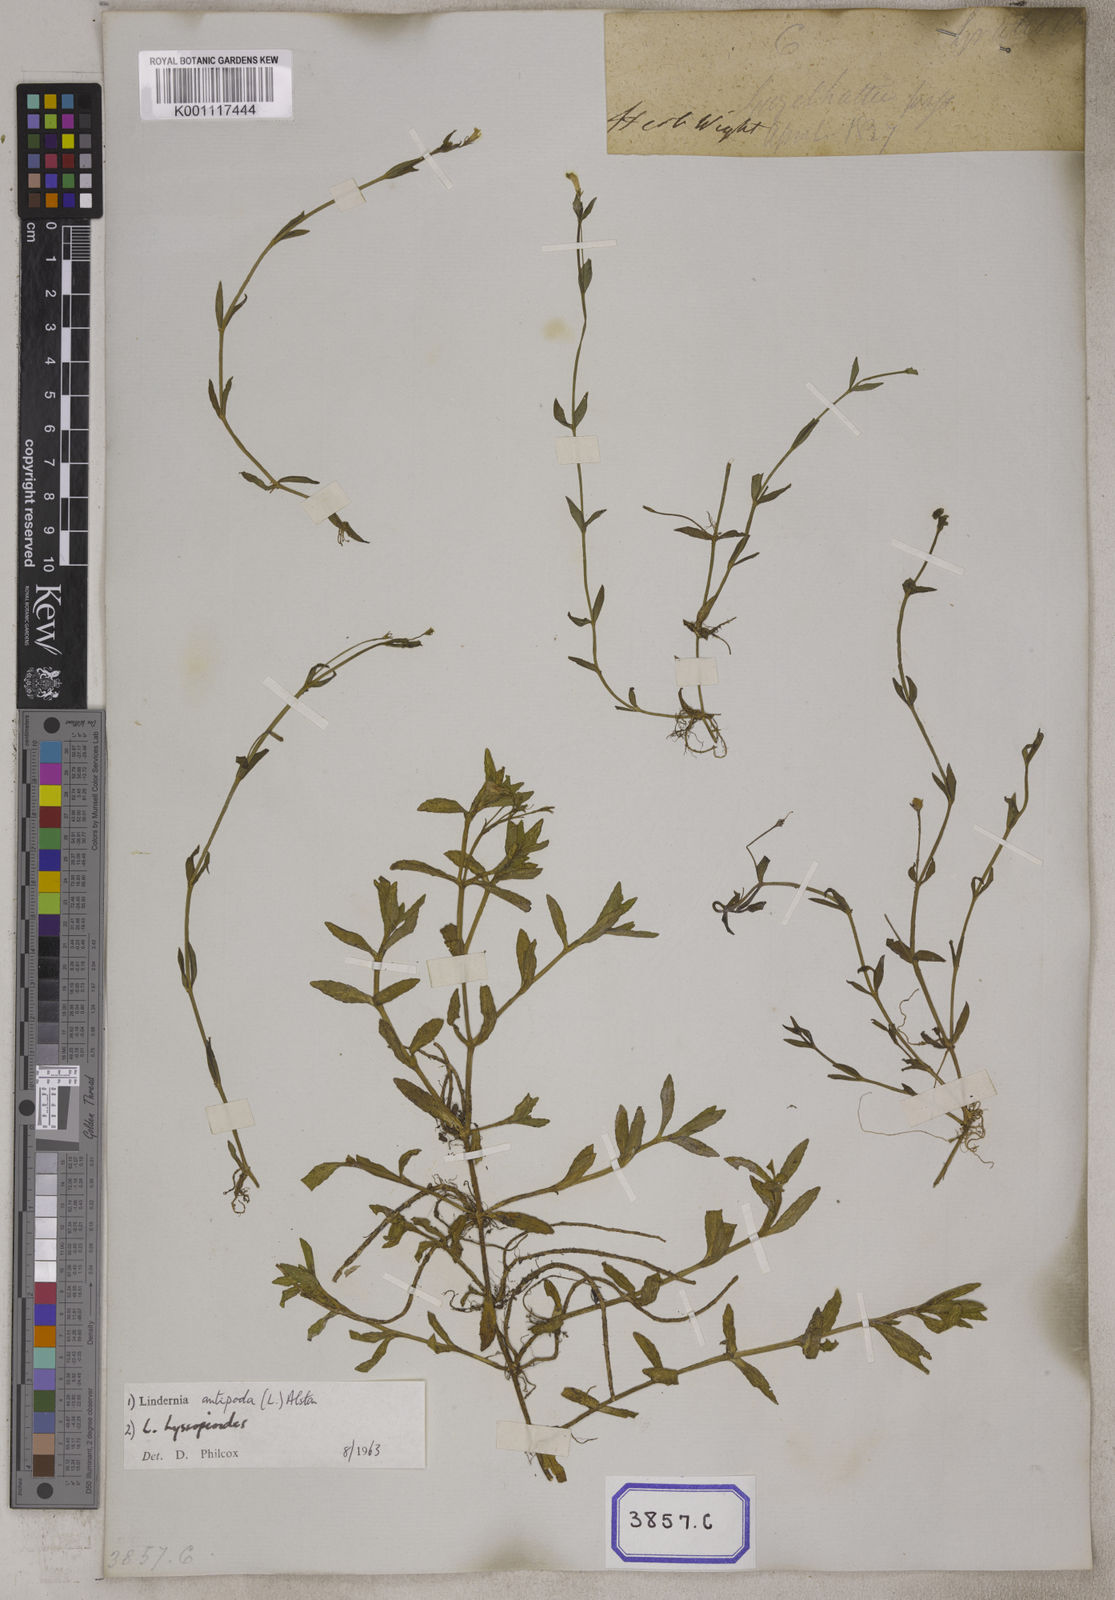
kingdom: Plantae
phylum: Tracheophyta
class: Magnoliopsida
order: Lamiales
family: Linderniaceae
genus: Bonnaya
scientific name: Bonnaya veronicifolia
